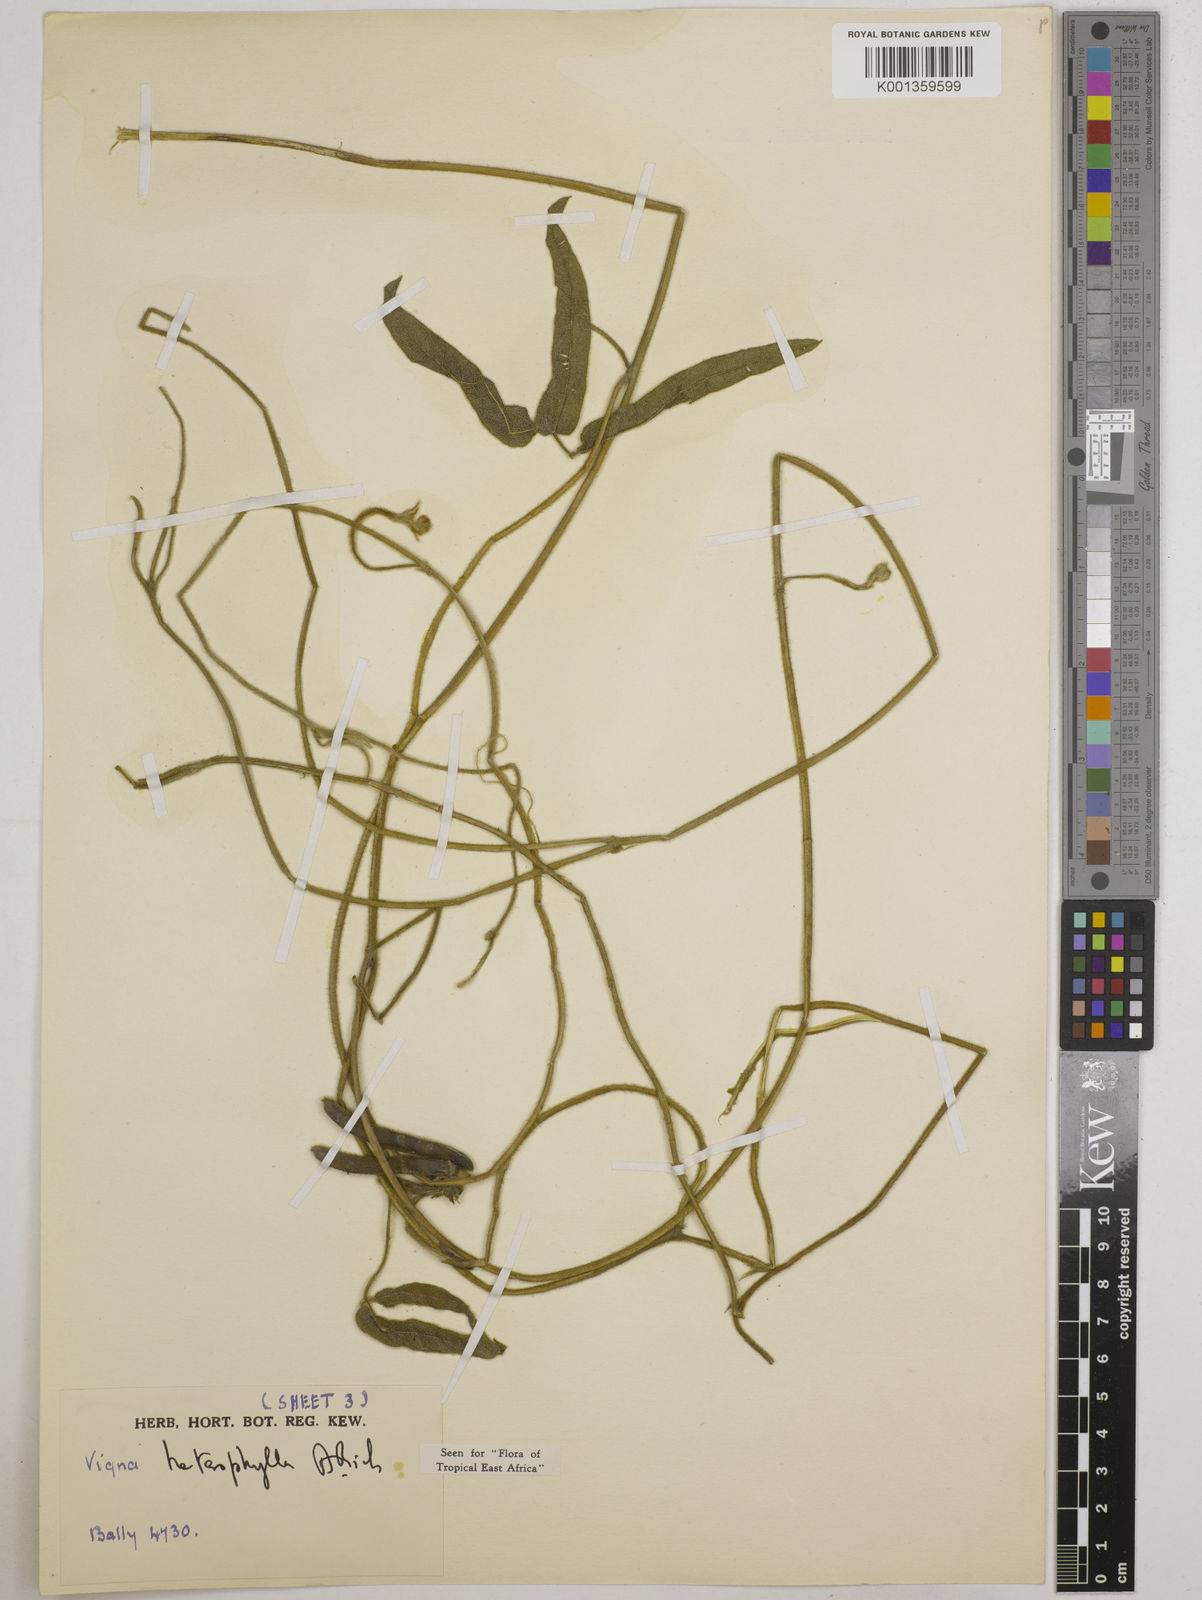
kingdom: Plantae
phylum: Tracheophyta
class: Magnoliopsida
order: Fabales
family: Fabaceae
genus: Vigna
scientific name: Vigna heterophylla
